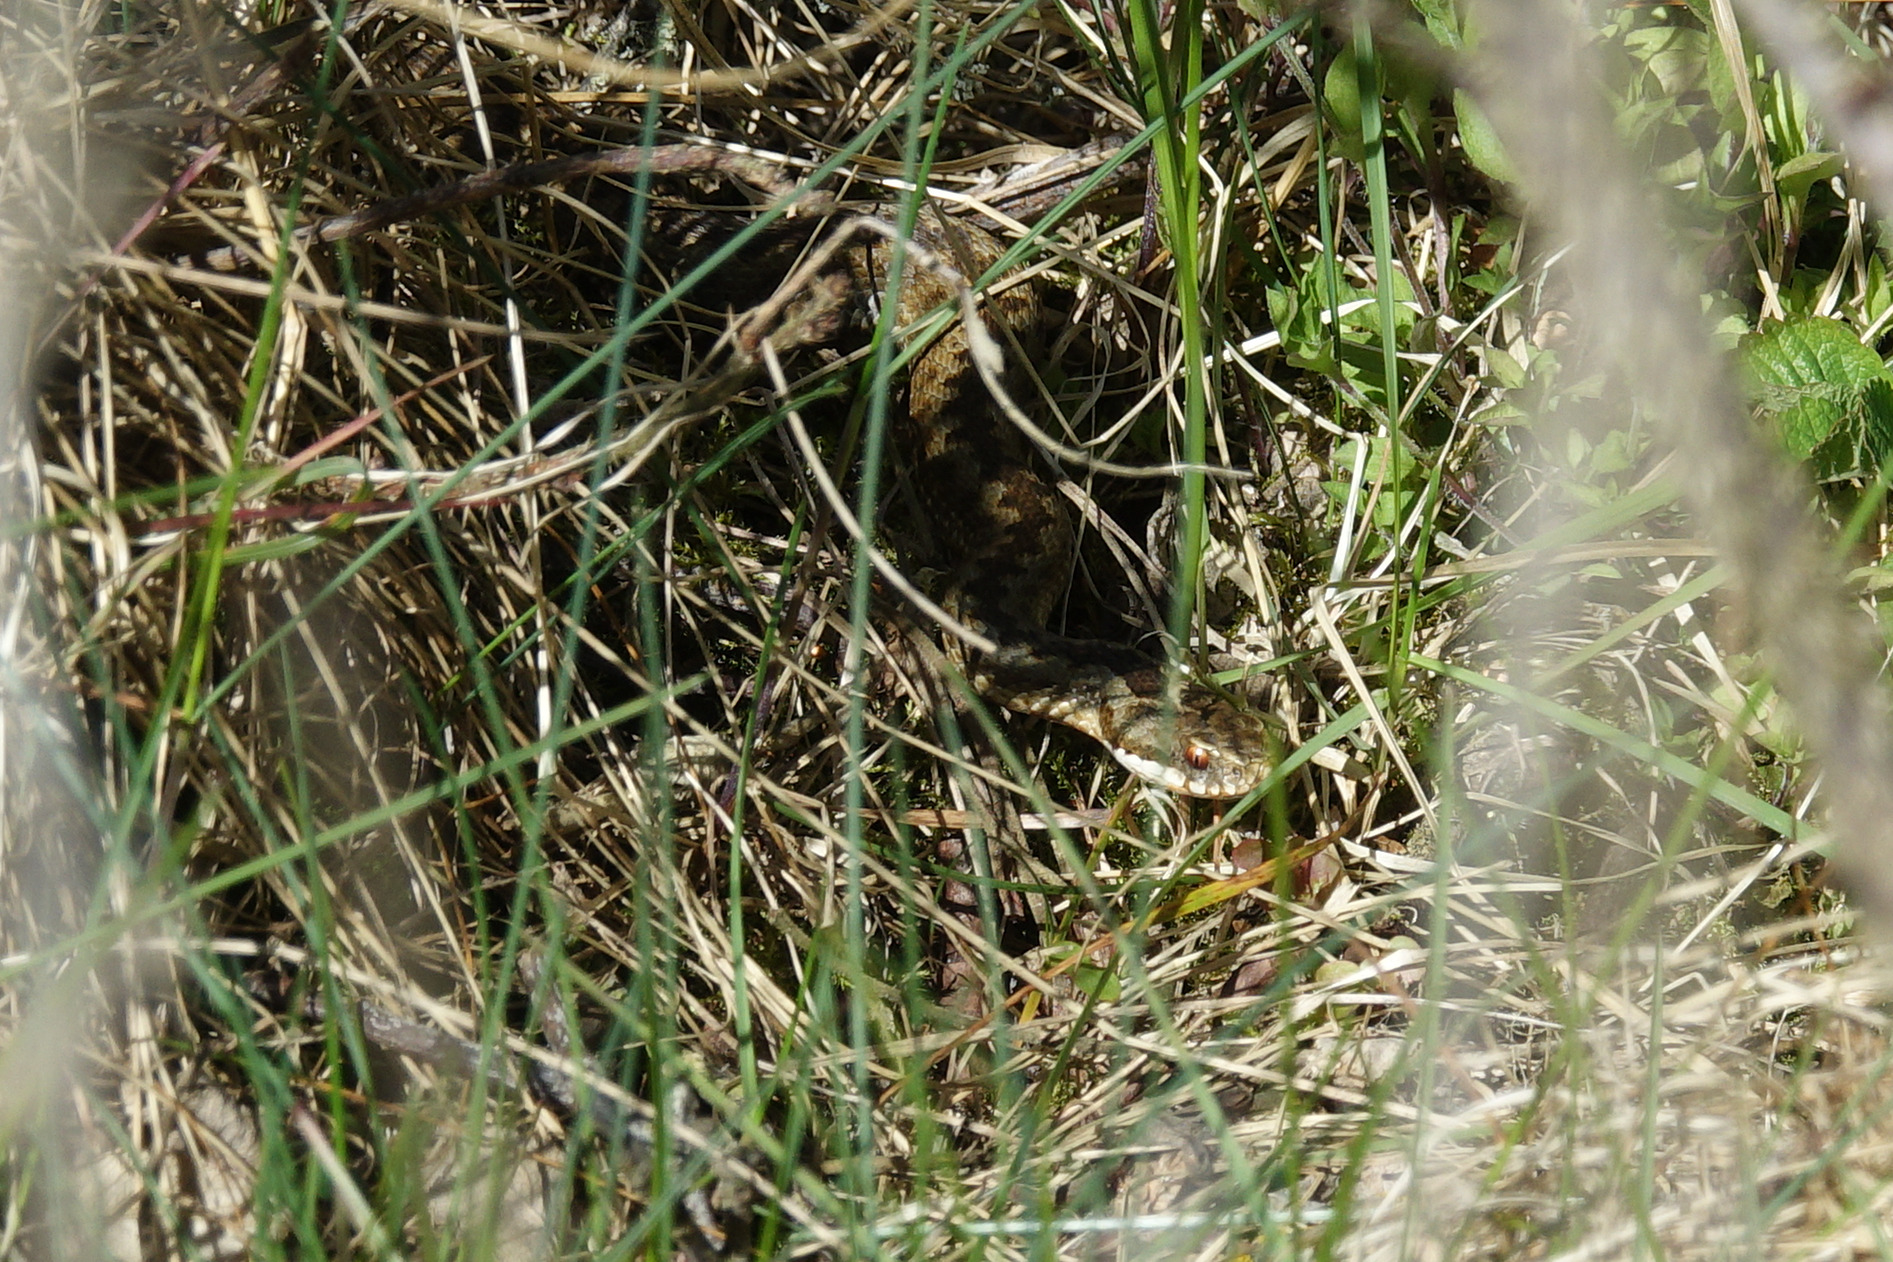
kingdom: Animalia
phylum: Chordata
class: Squamata
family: Viperidae
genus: Vipera
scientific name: Vipera berus
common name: Hugorm
